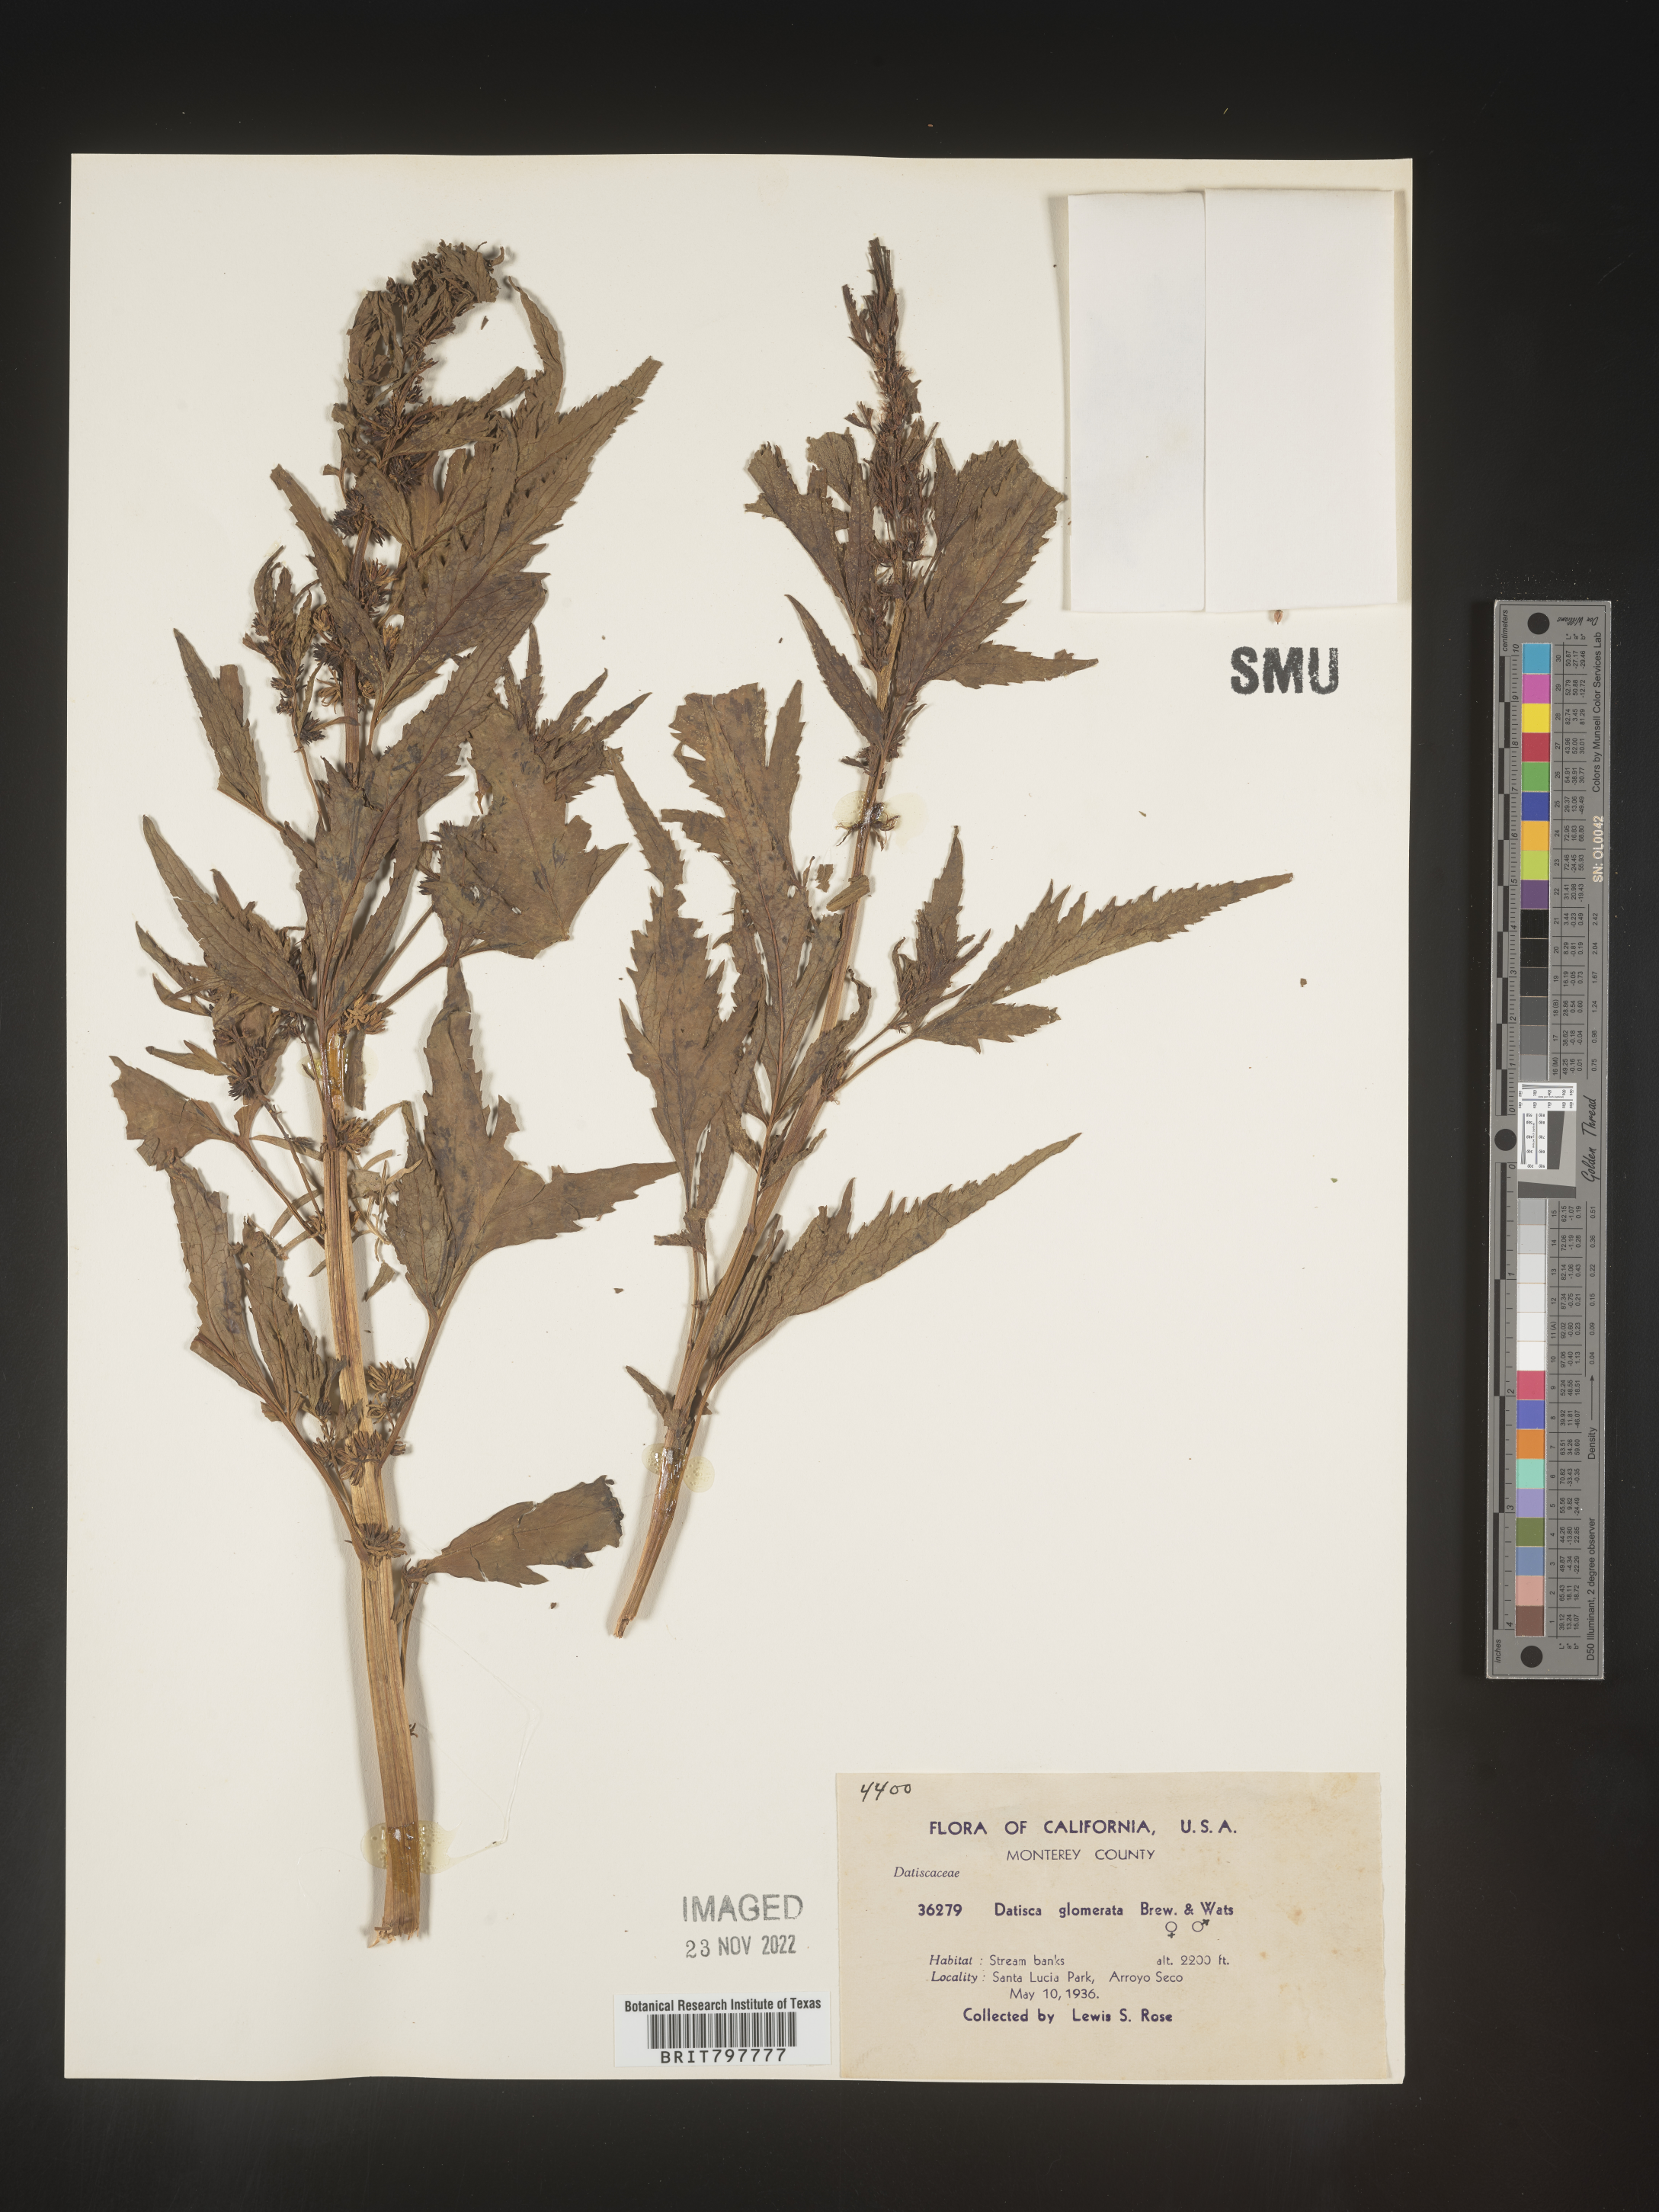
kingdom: Plantae
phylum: Tracheophyta
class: Magnoliopsida
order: Cucurbitales
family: Datiscaceae
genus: Datisca
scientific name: Datisca
